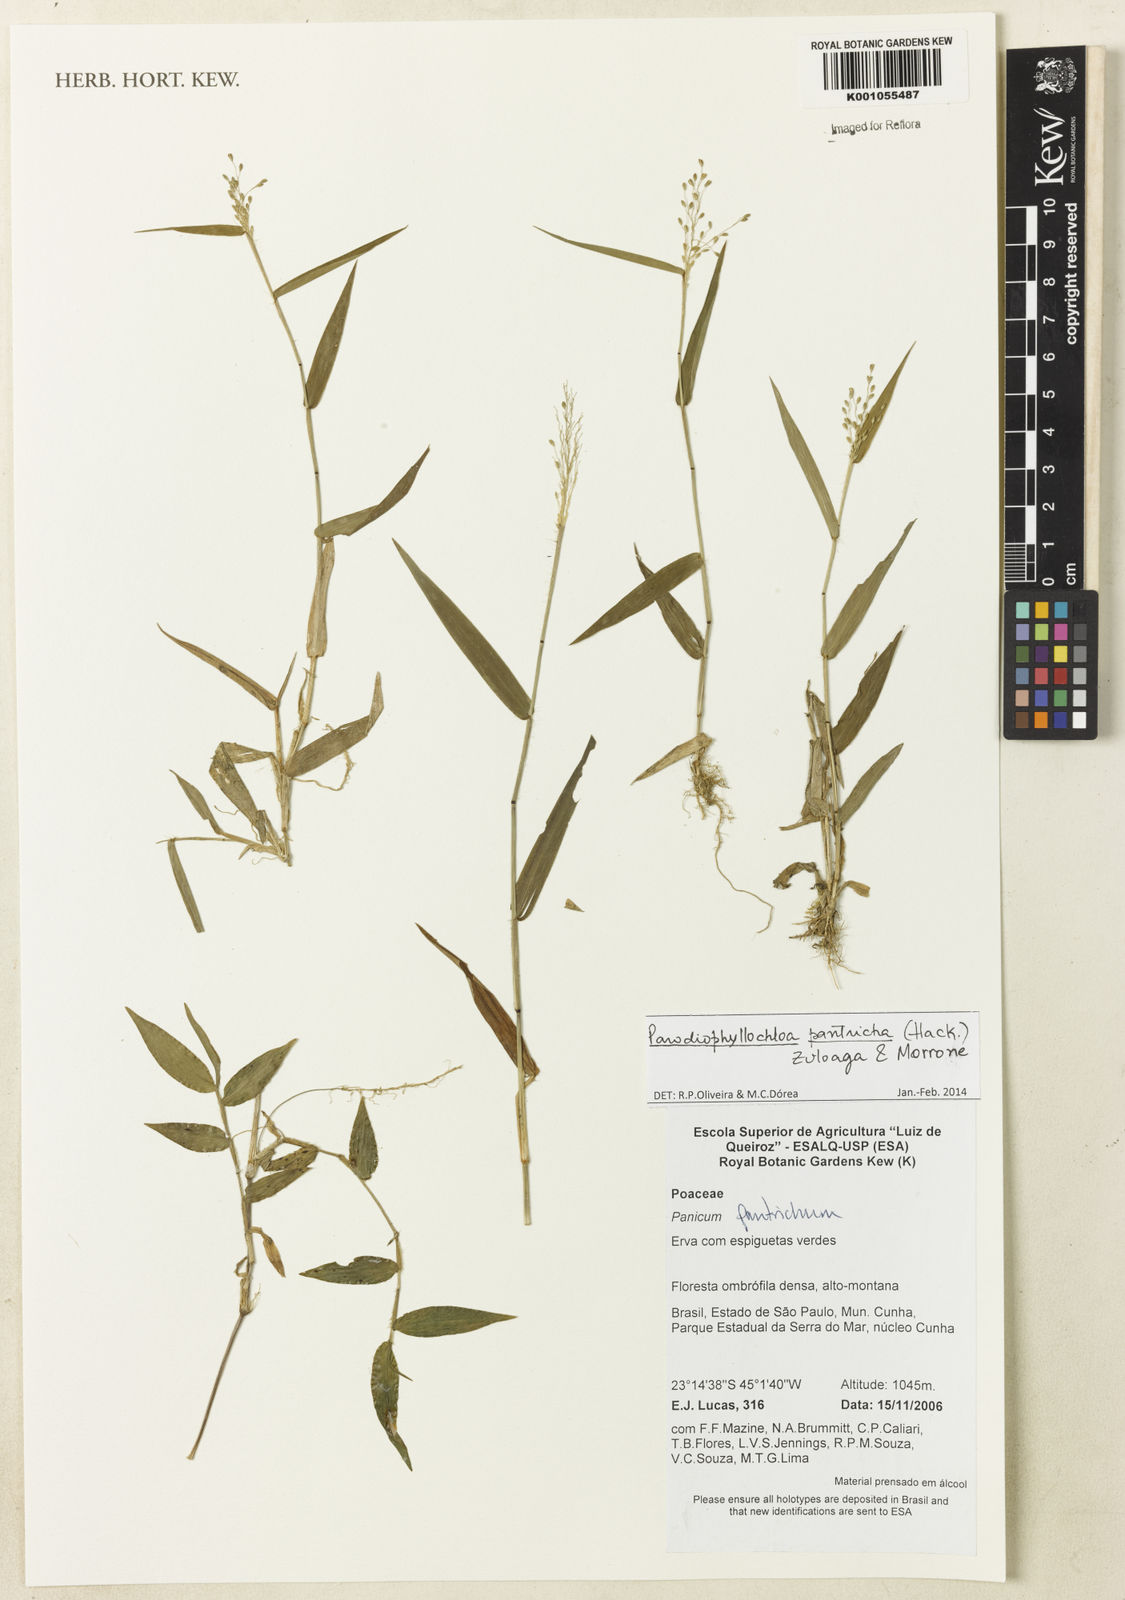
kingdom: Plantae
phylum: Tracheophyta
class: Liliopsida
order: Poales
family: Poaceae
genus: Parodiophyllochloa
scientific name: Parodiophyllochloa pantricha
